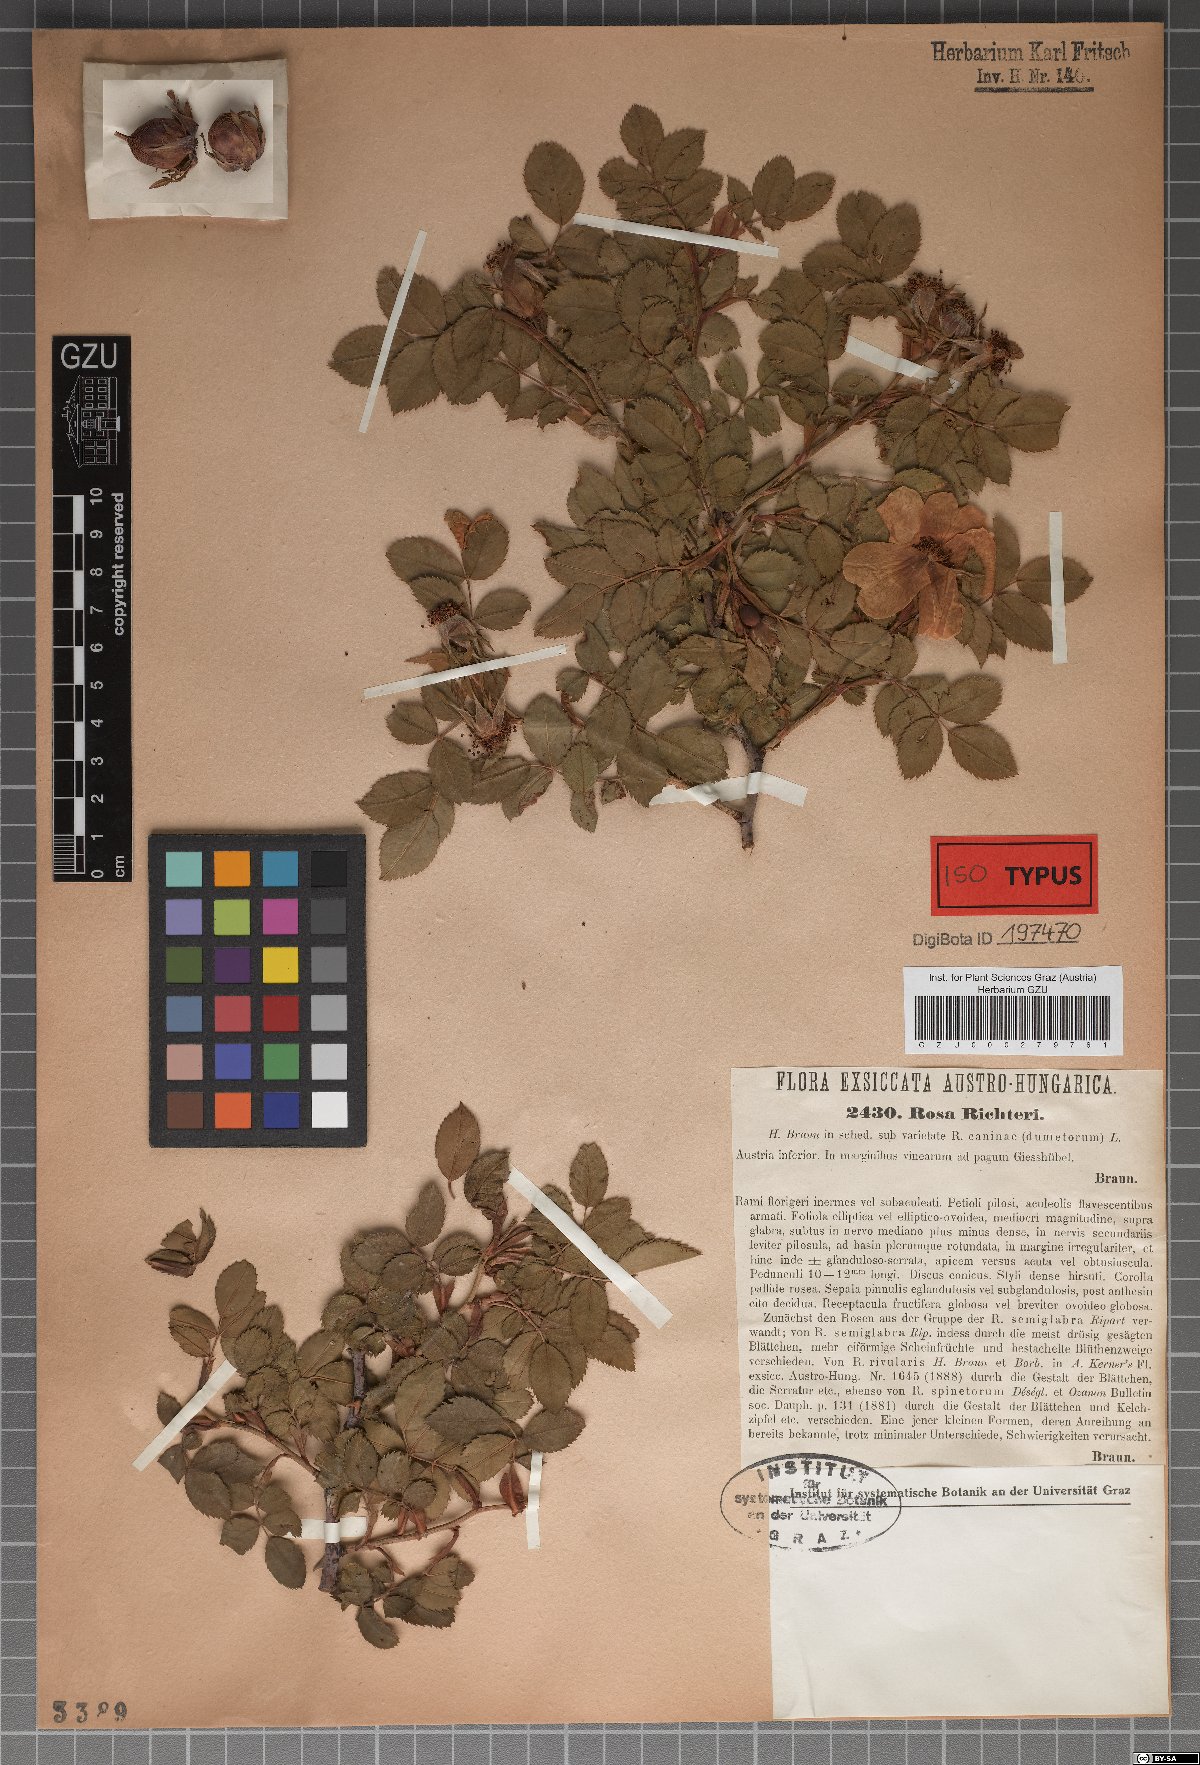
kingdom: Plantae
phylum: Tracheophyta
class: Magnoliopsida
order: Rosales
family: Rosaceae
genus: Rosa
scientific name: Rosa corymbifera
